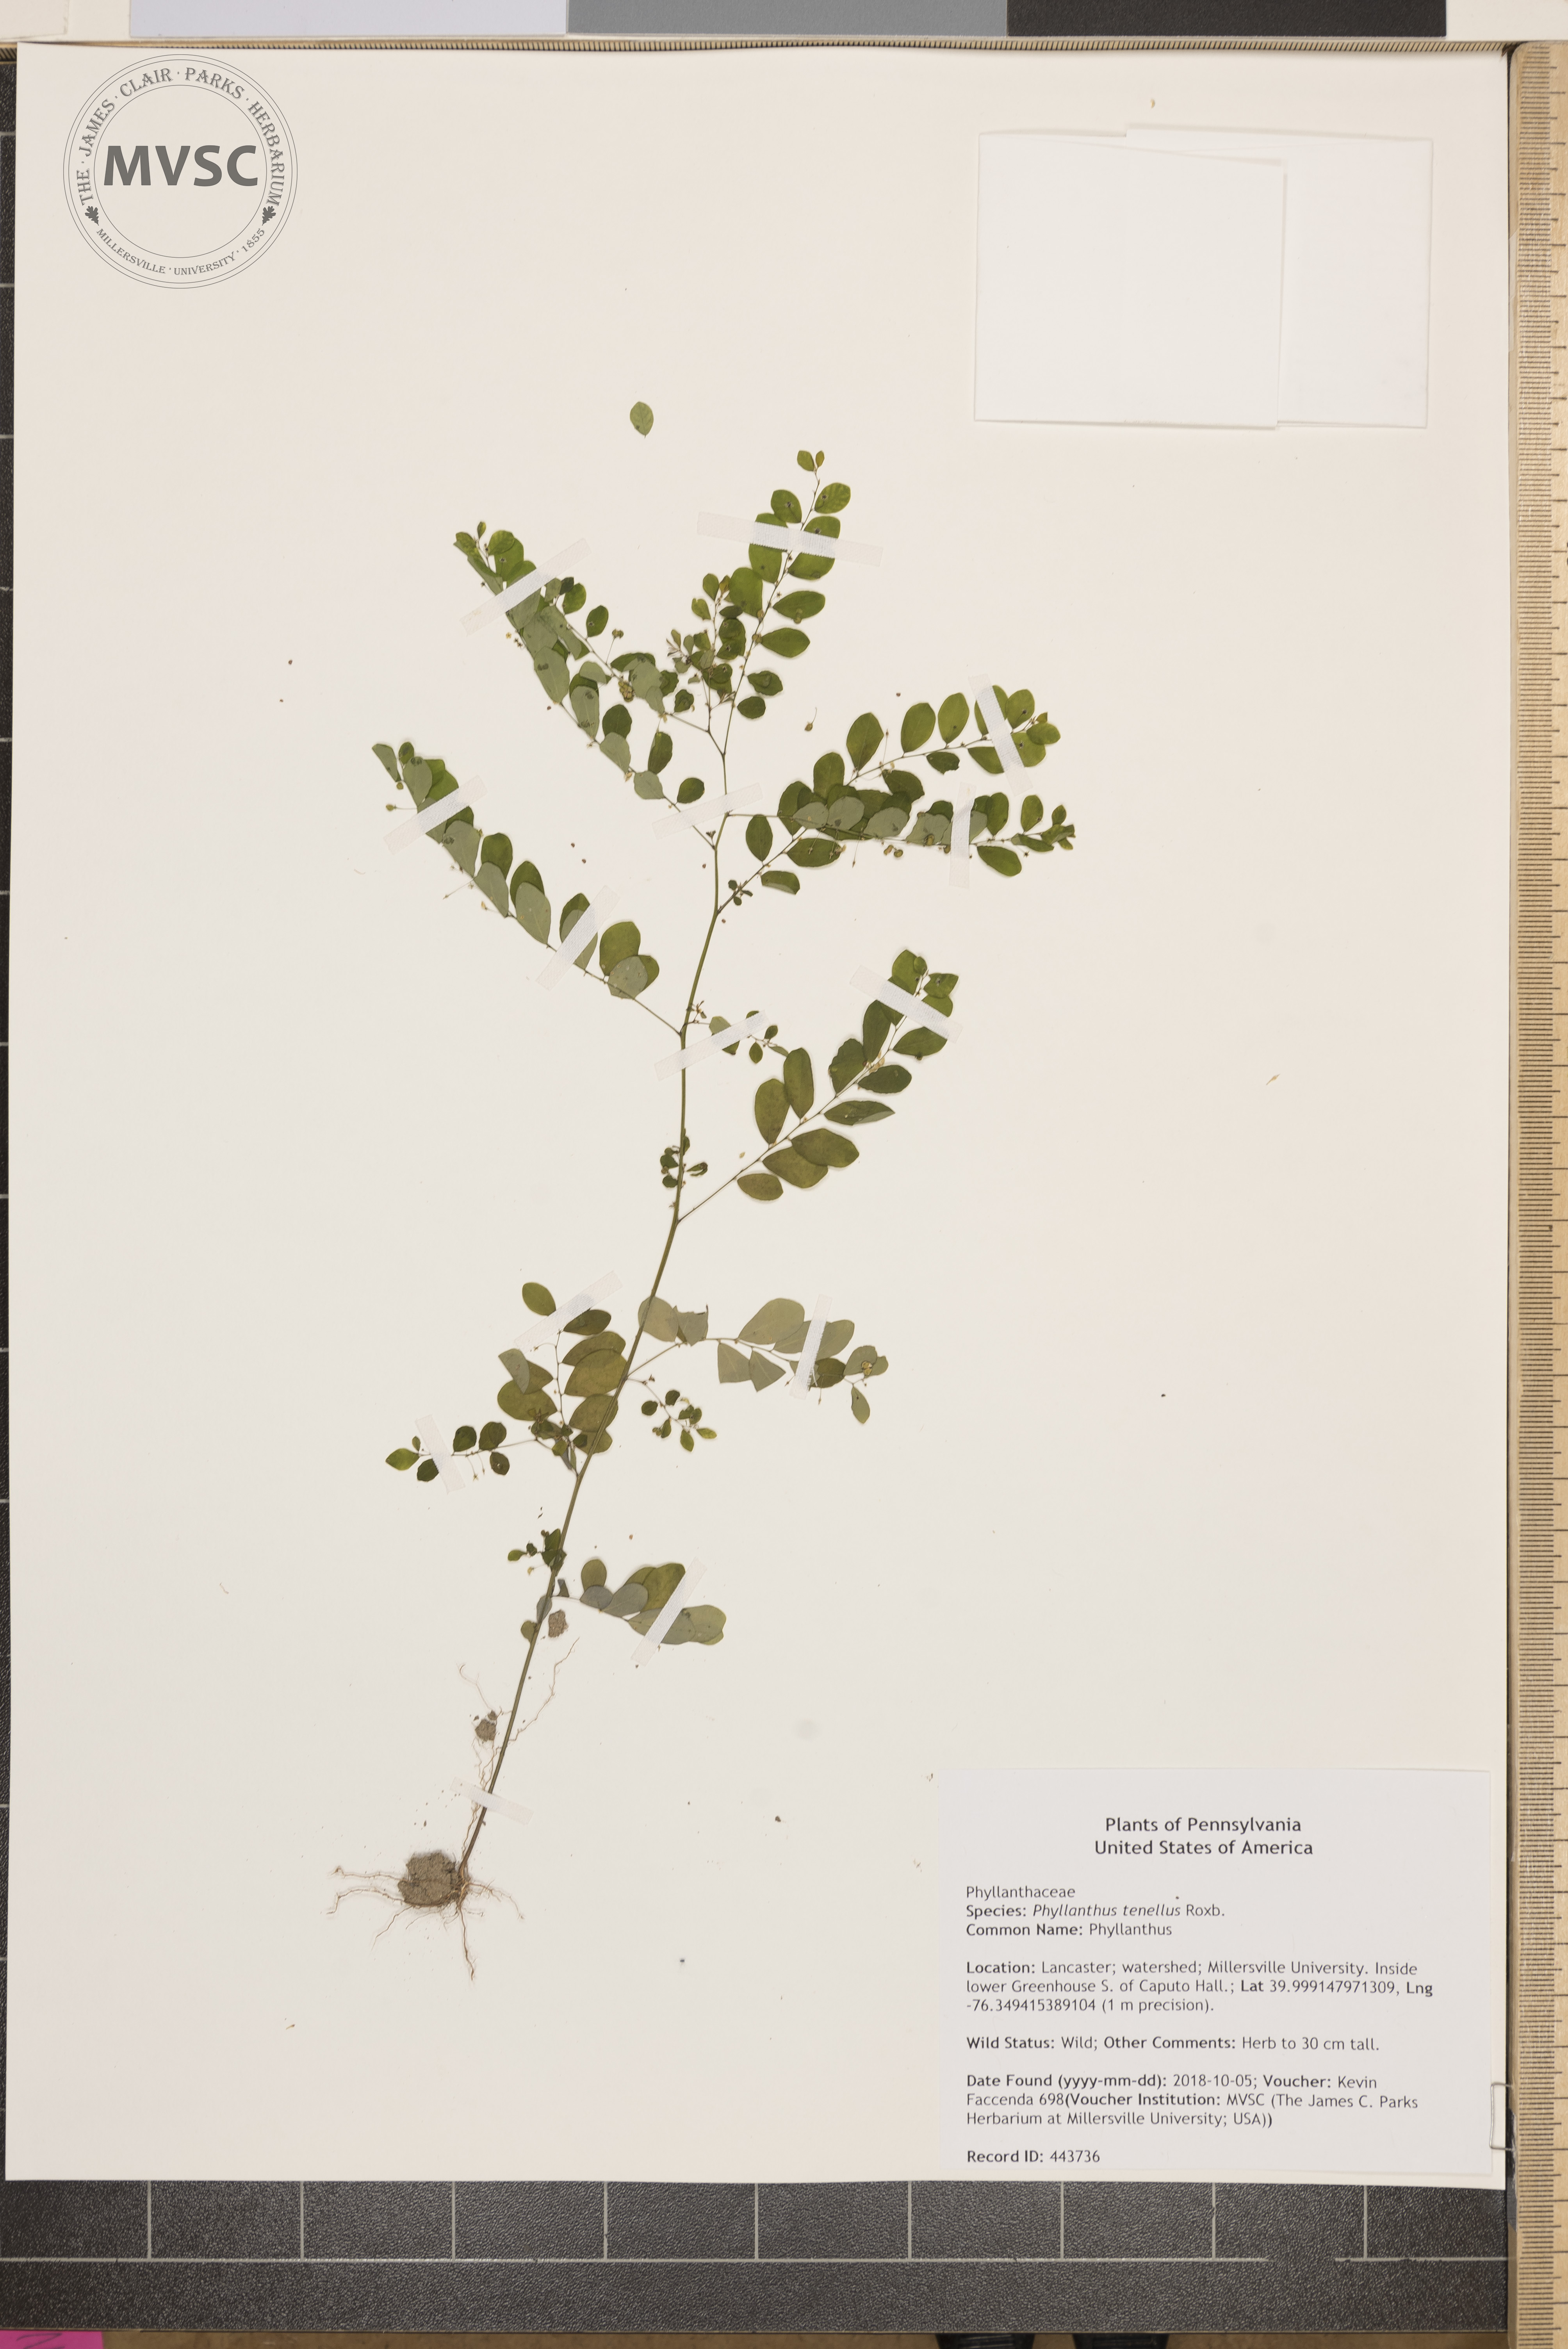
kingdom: Plantae
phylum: Tracheophyta
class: Magnoliopsida
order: Malpighiales
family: Phyllanthaceae
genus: Phyllanthus
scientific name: Phyllanthus tenellus
